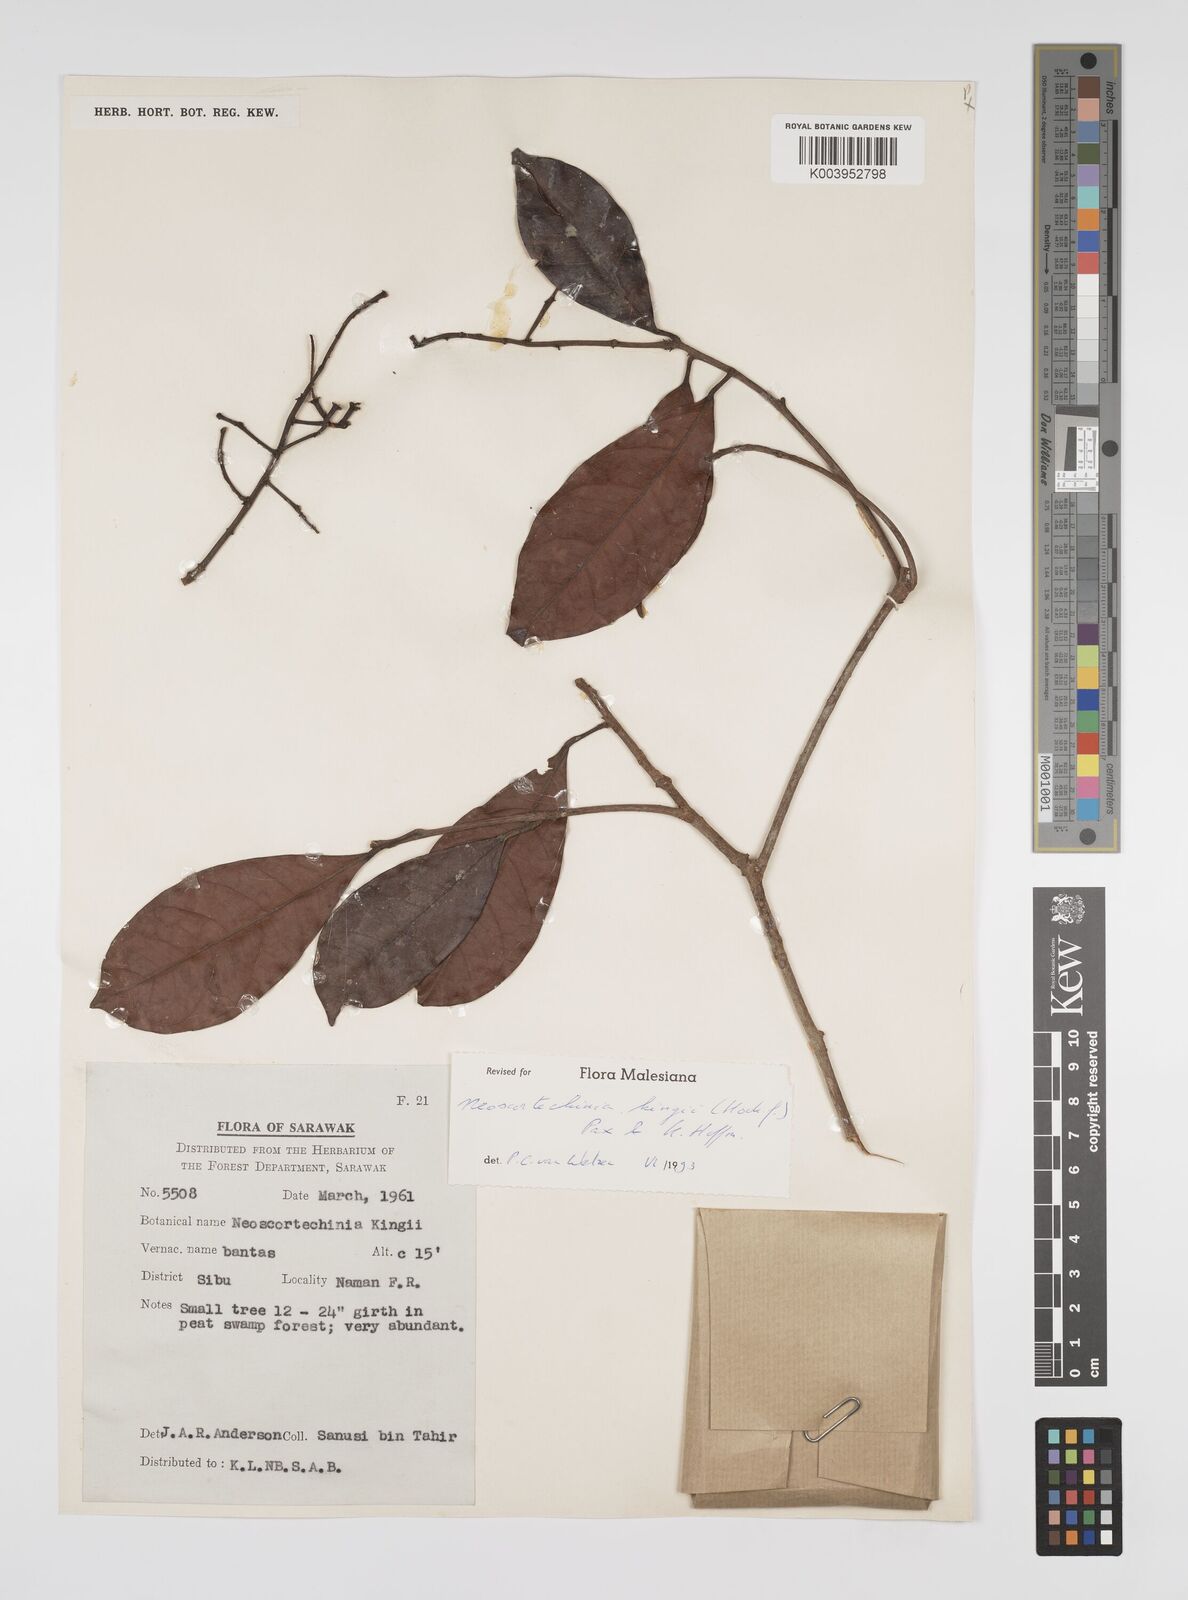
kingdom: Plantae
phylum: Tracheophyta
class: Magnoliopsida
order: Malpighiales
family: Euphorbiaceae
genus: Neoscortechinia
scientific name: Neoscortechinia kingii
